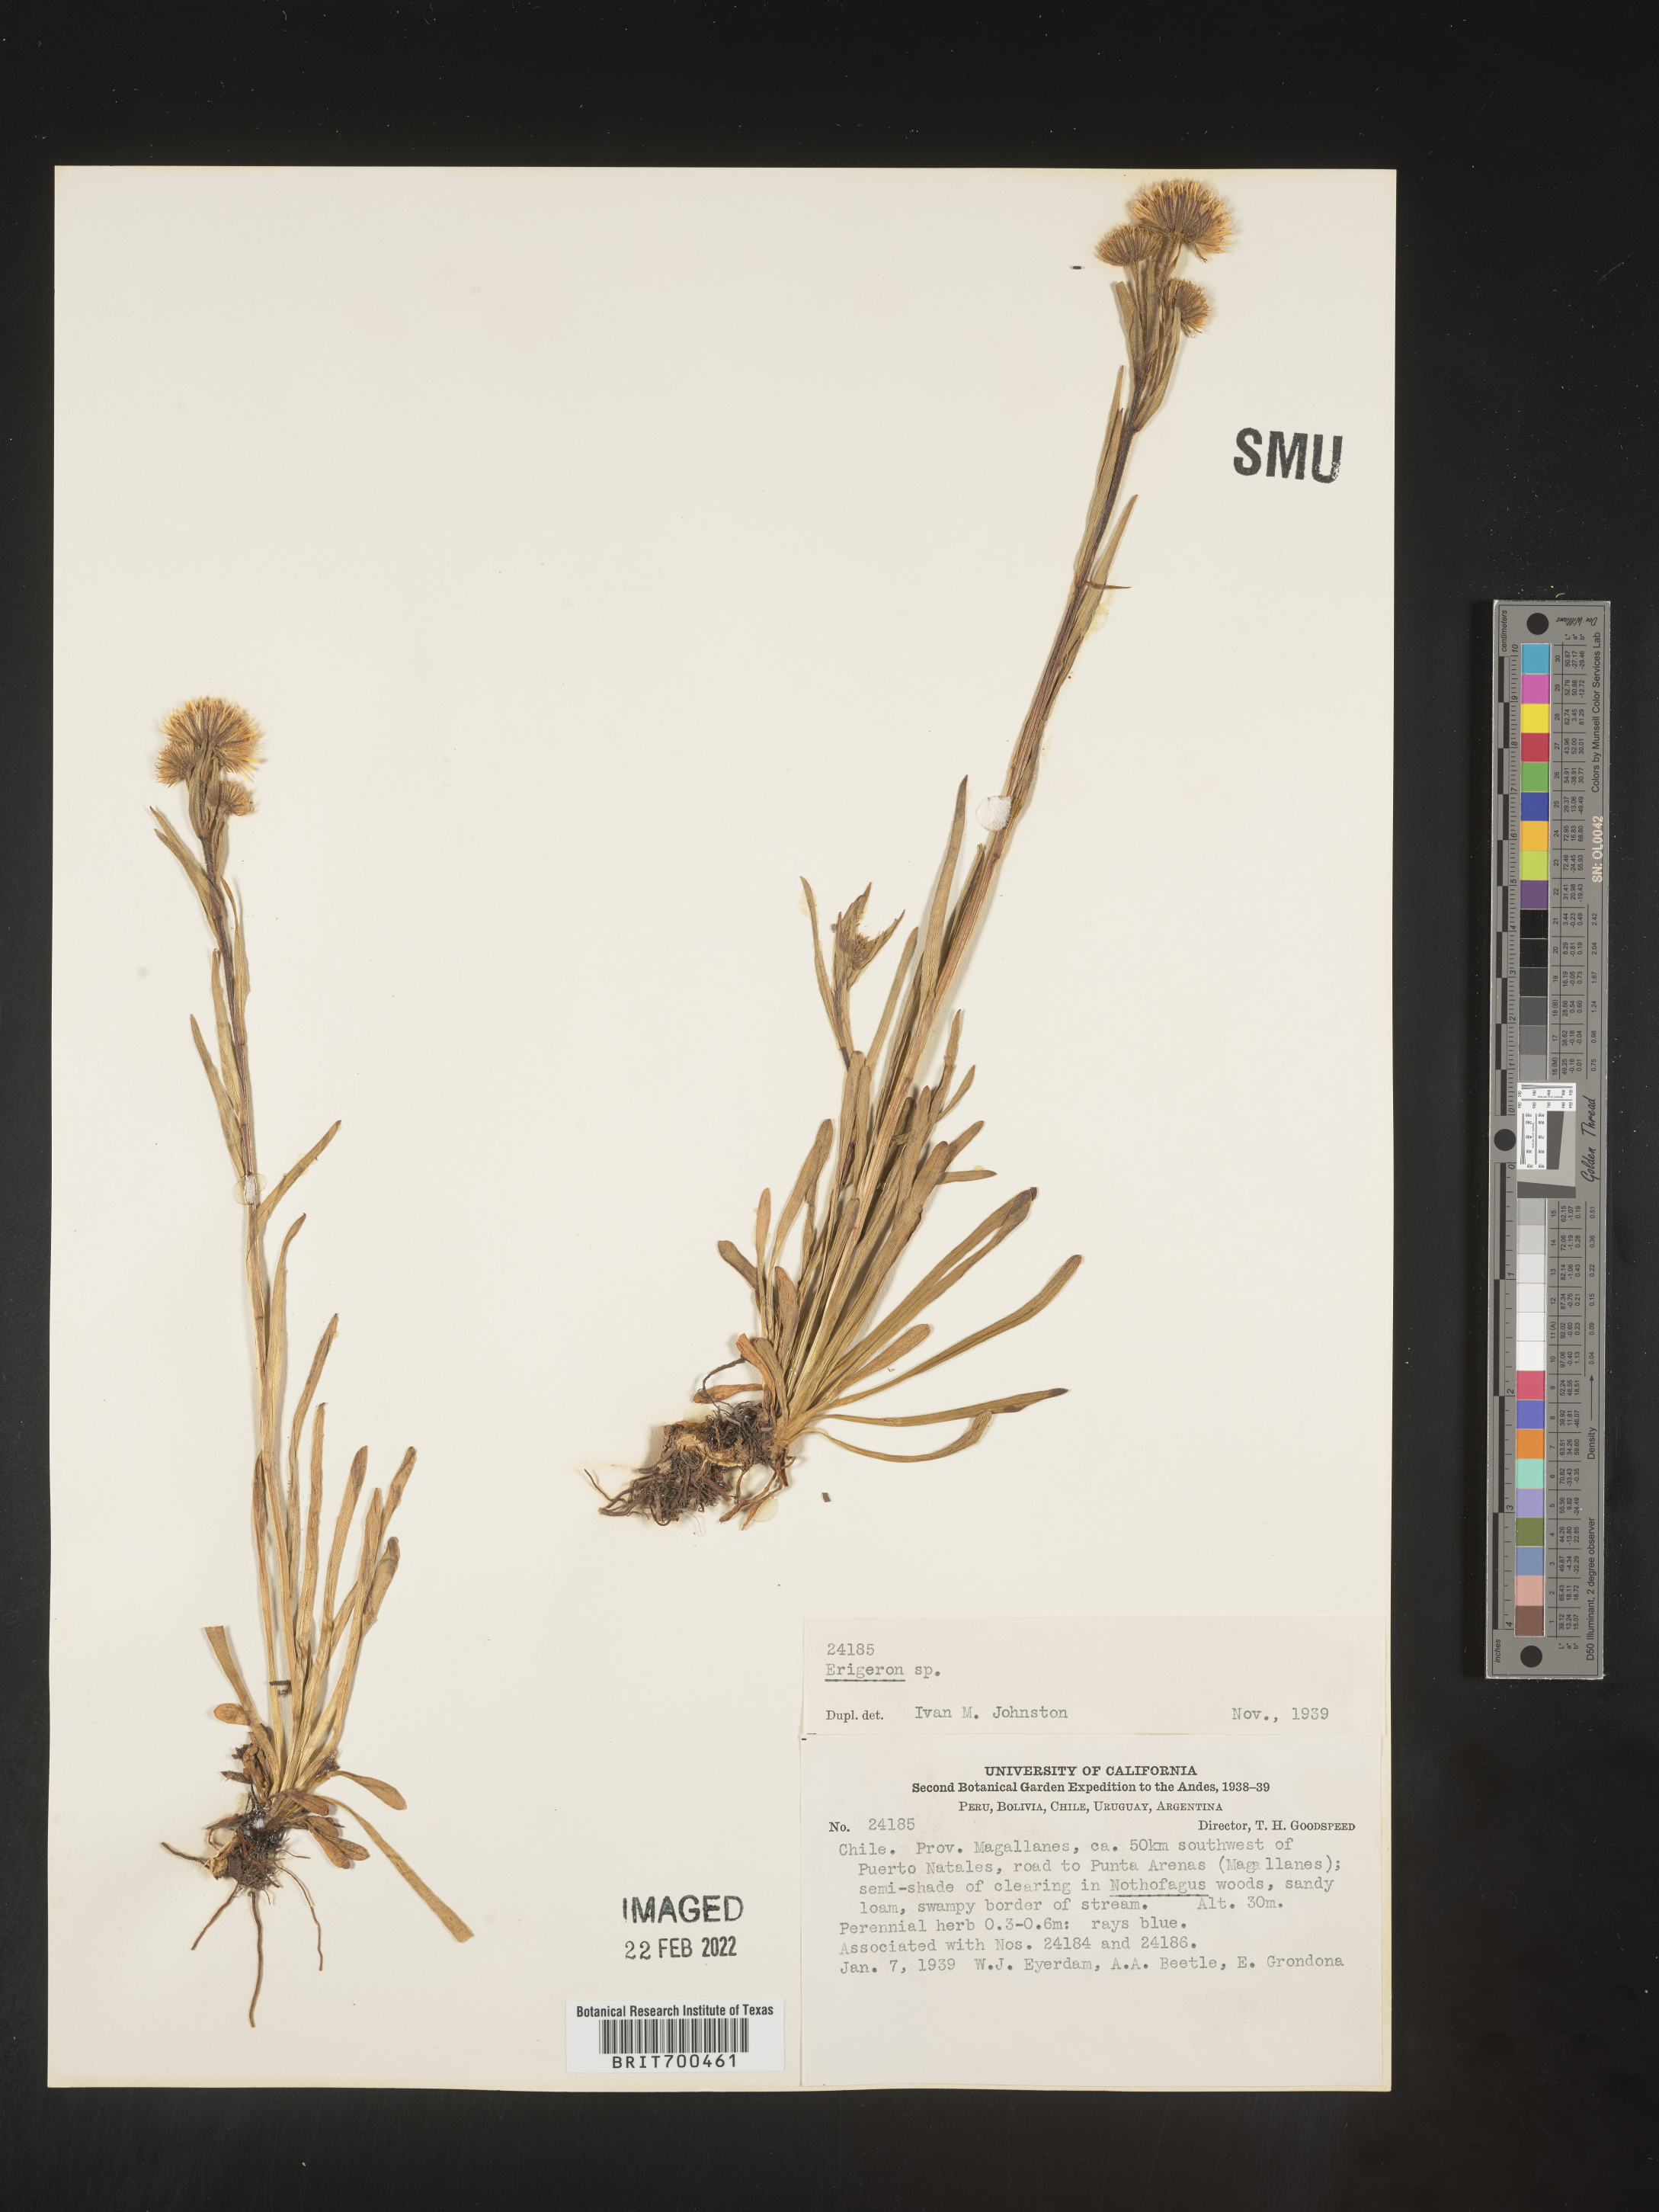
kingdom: Plantae
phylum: Tracheophyta
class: Magnoliopsida
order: Asterales
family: Asteraceae
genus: Erigeron
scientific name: Erigeron
